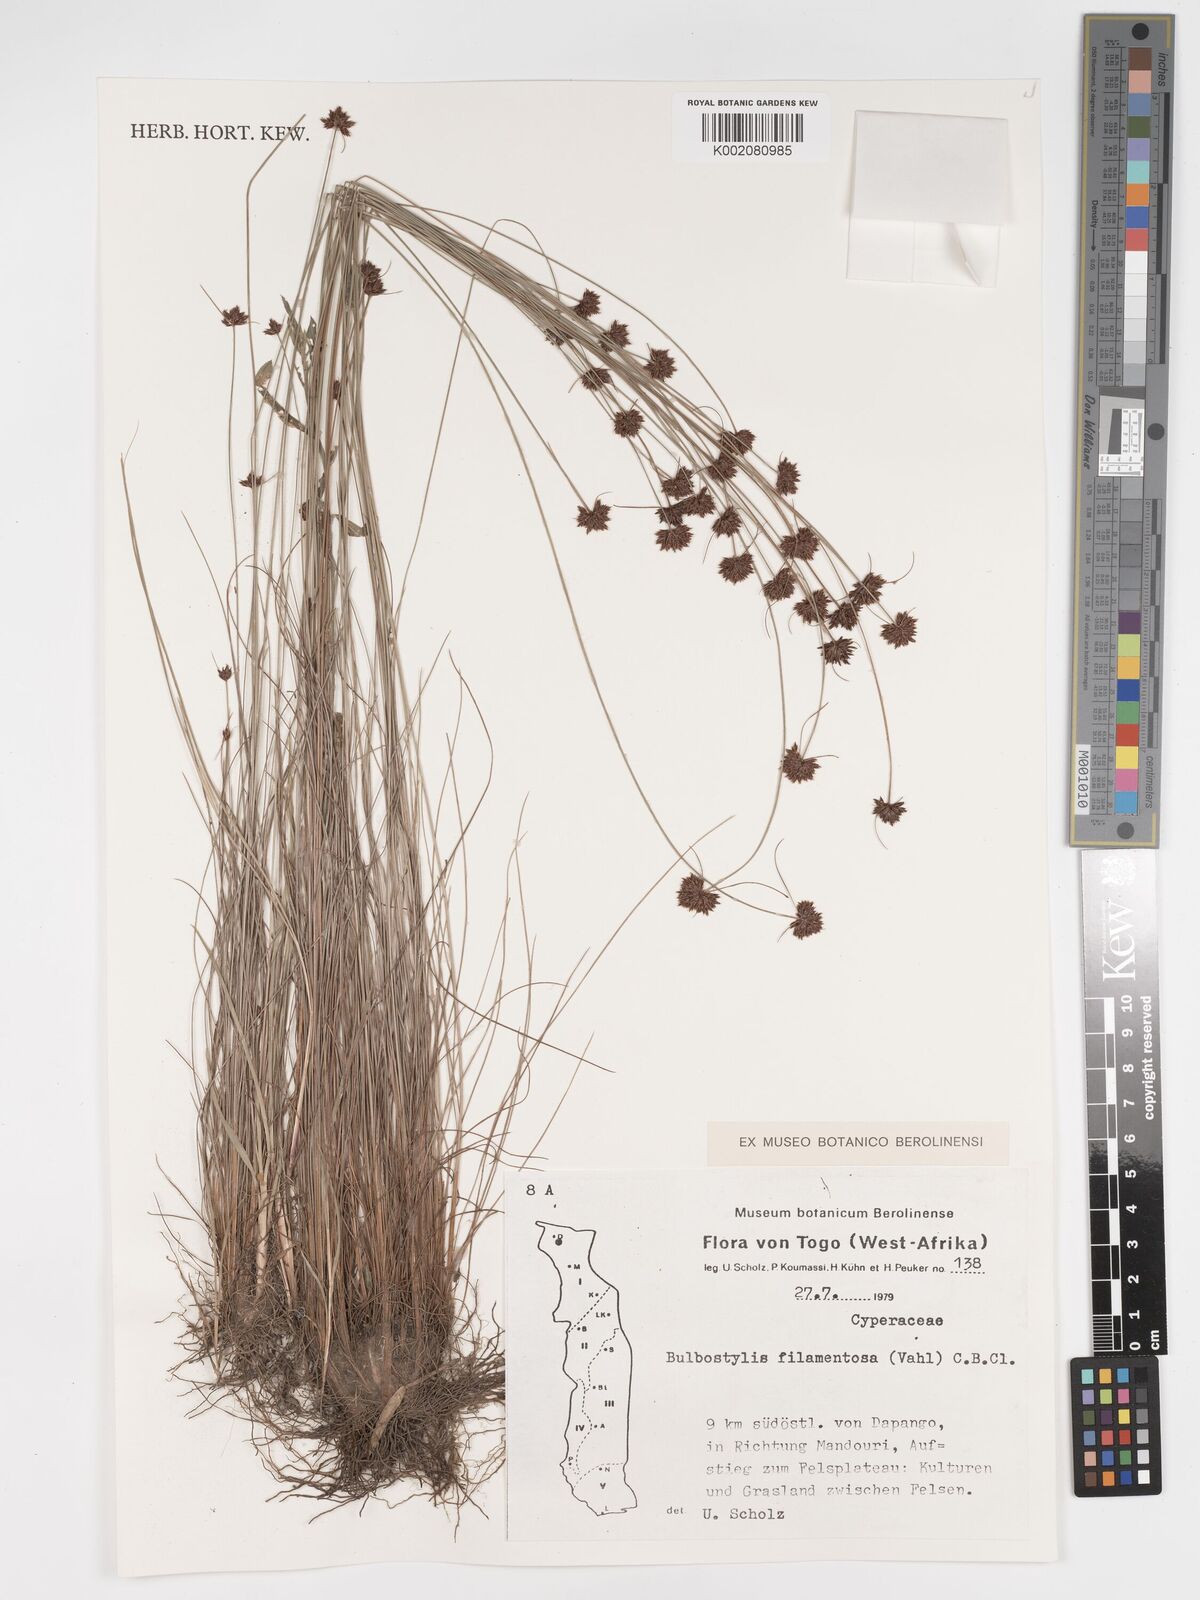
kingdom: Plantae
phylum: Tracheophyta
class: Liliopsida
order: Poales
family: Cyperaceae
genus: Bulbostylis
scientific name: Bulbostylis filamentosa
